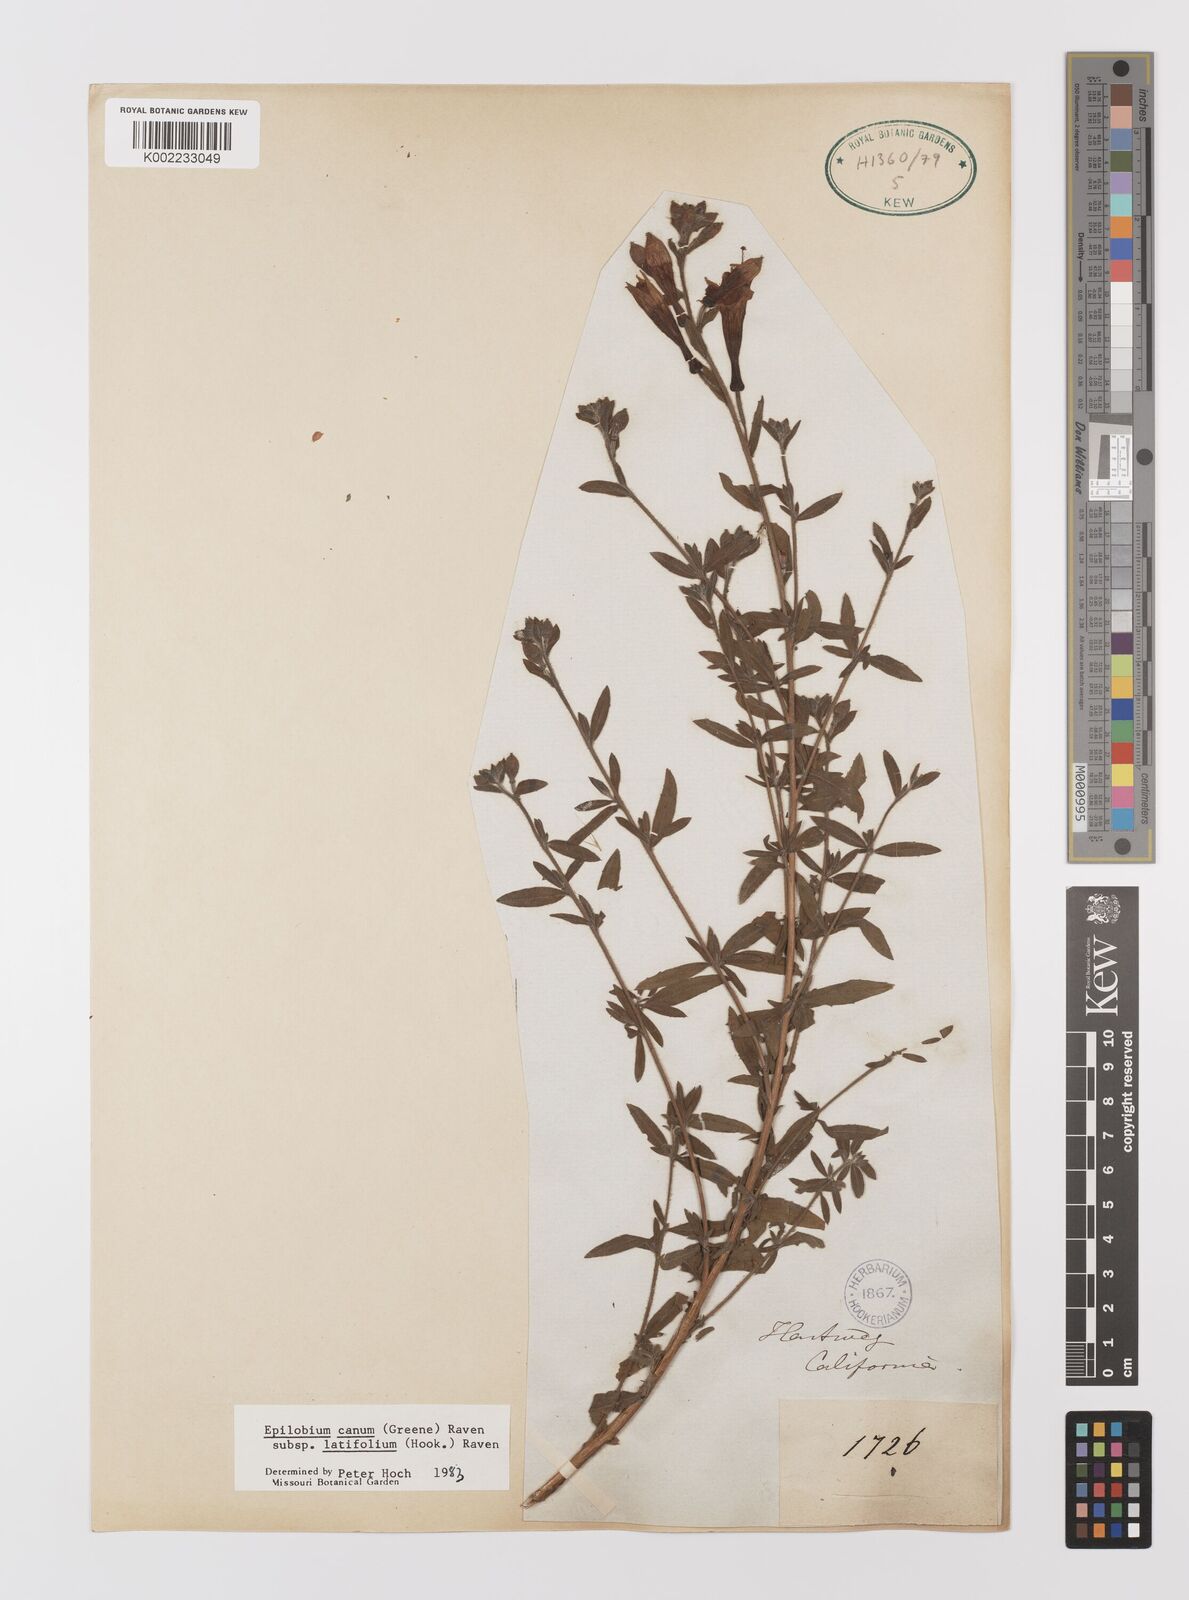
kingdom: Plantae
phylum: Tracheophyta
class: Magnoliopsida
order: Myrtales
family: Onagraceae
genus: Epilobium
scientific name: Epilobium
